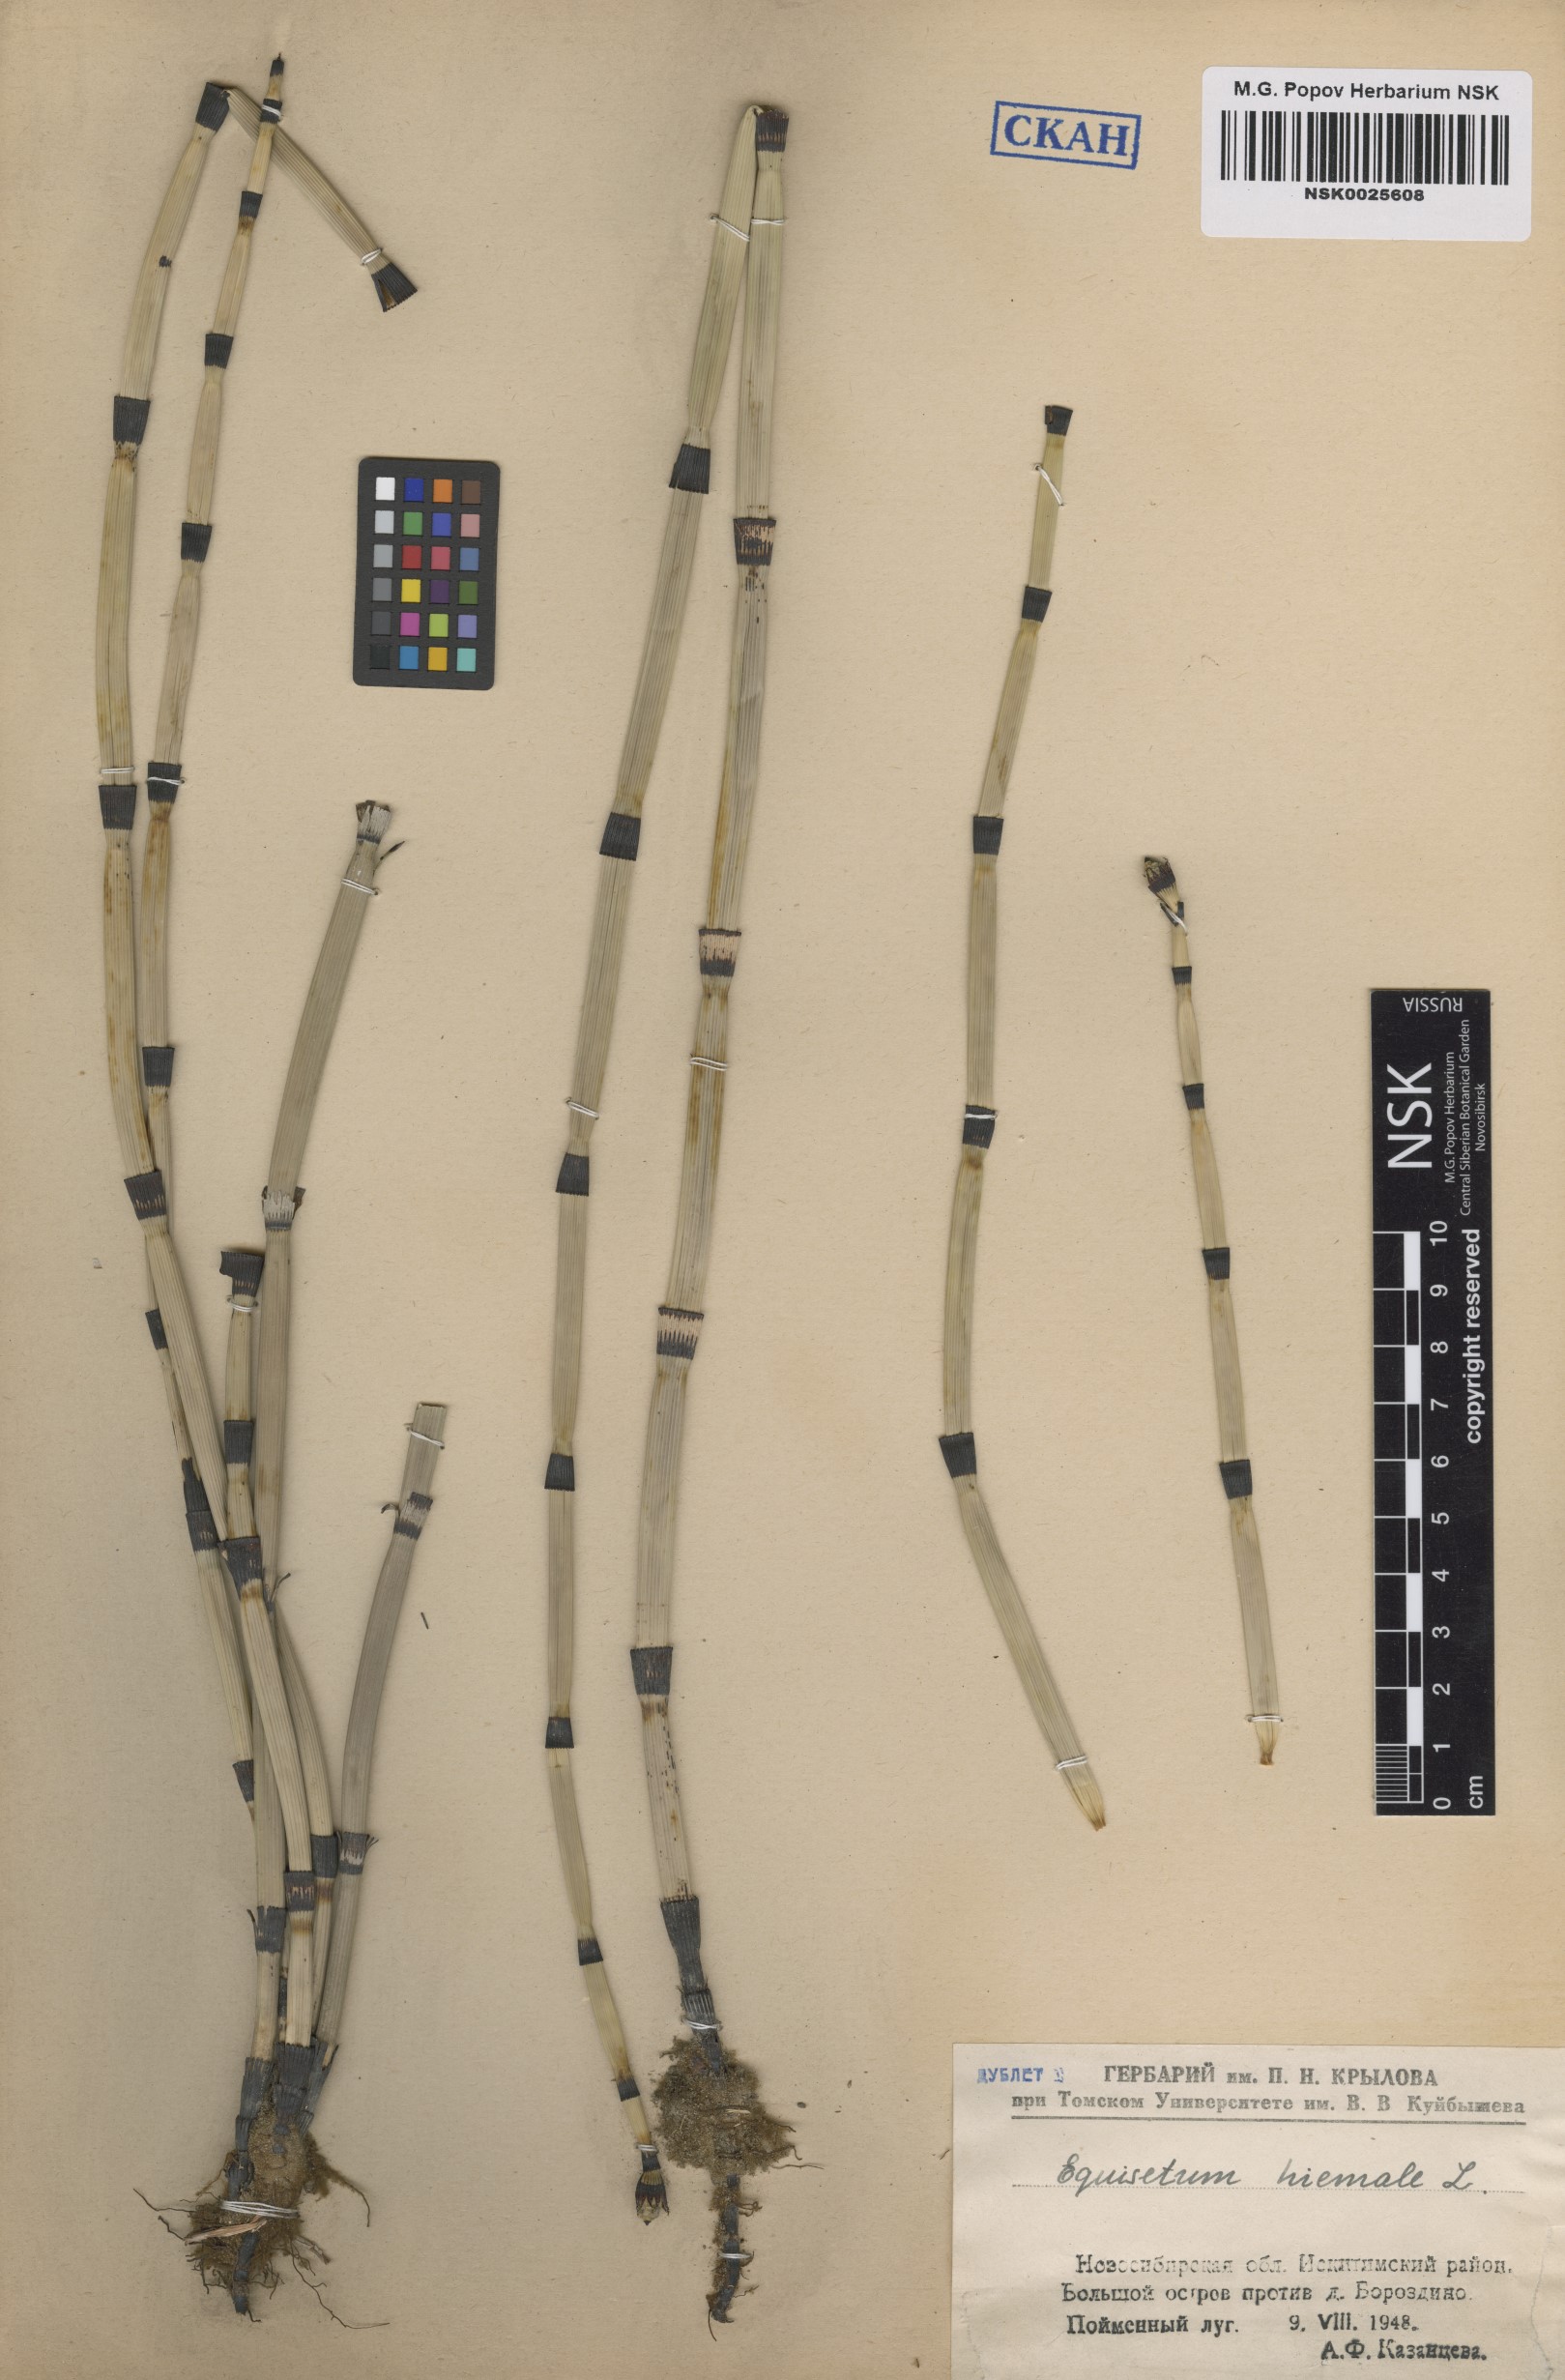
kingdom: Plantae
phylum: Tracheophyta
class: Polypodiopsida
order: Equisetales
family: Equisetaceae
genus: Equisetum
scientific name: Equisetum hyemale
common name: Rough horsetail
